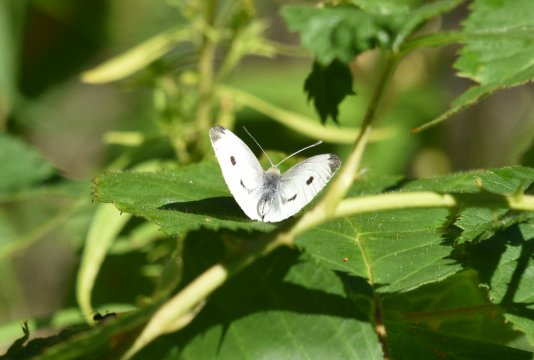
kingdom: Animalia
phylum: Arthropoda
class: Insecta
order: Lepidoptera
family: Pieridae
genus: Pieris
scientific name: Pieris rapae
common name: Cabbage White
